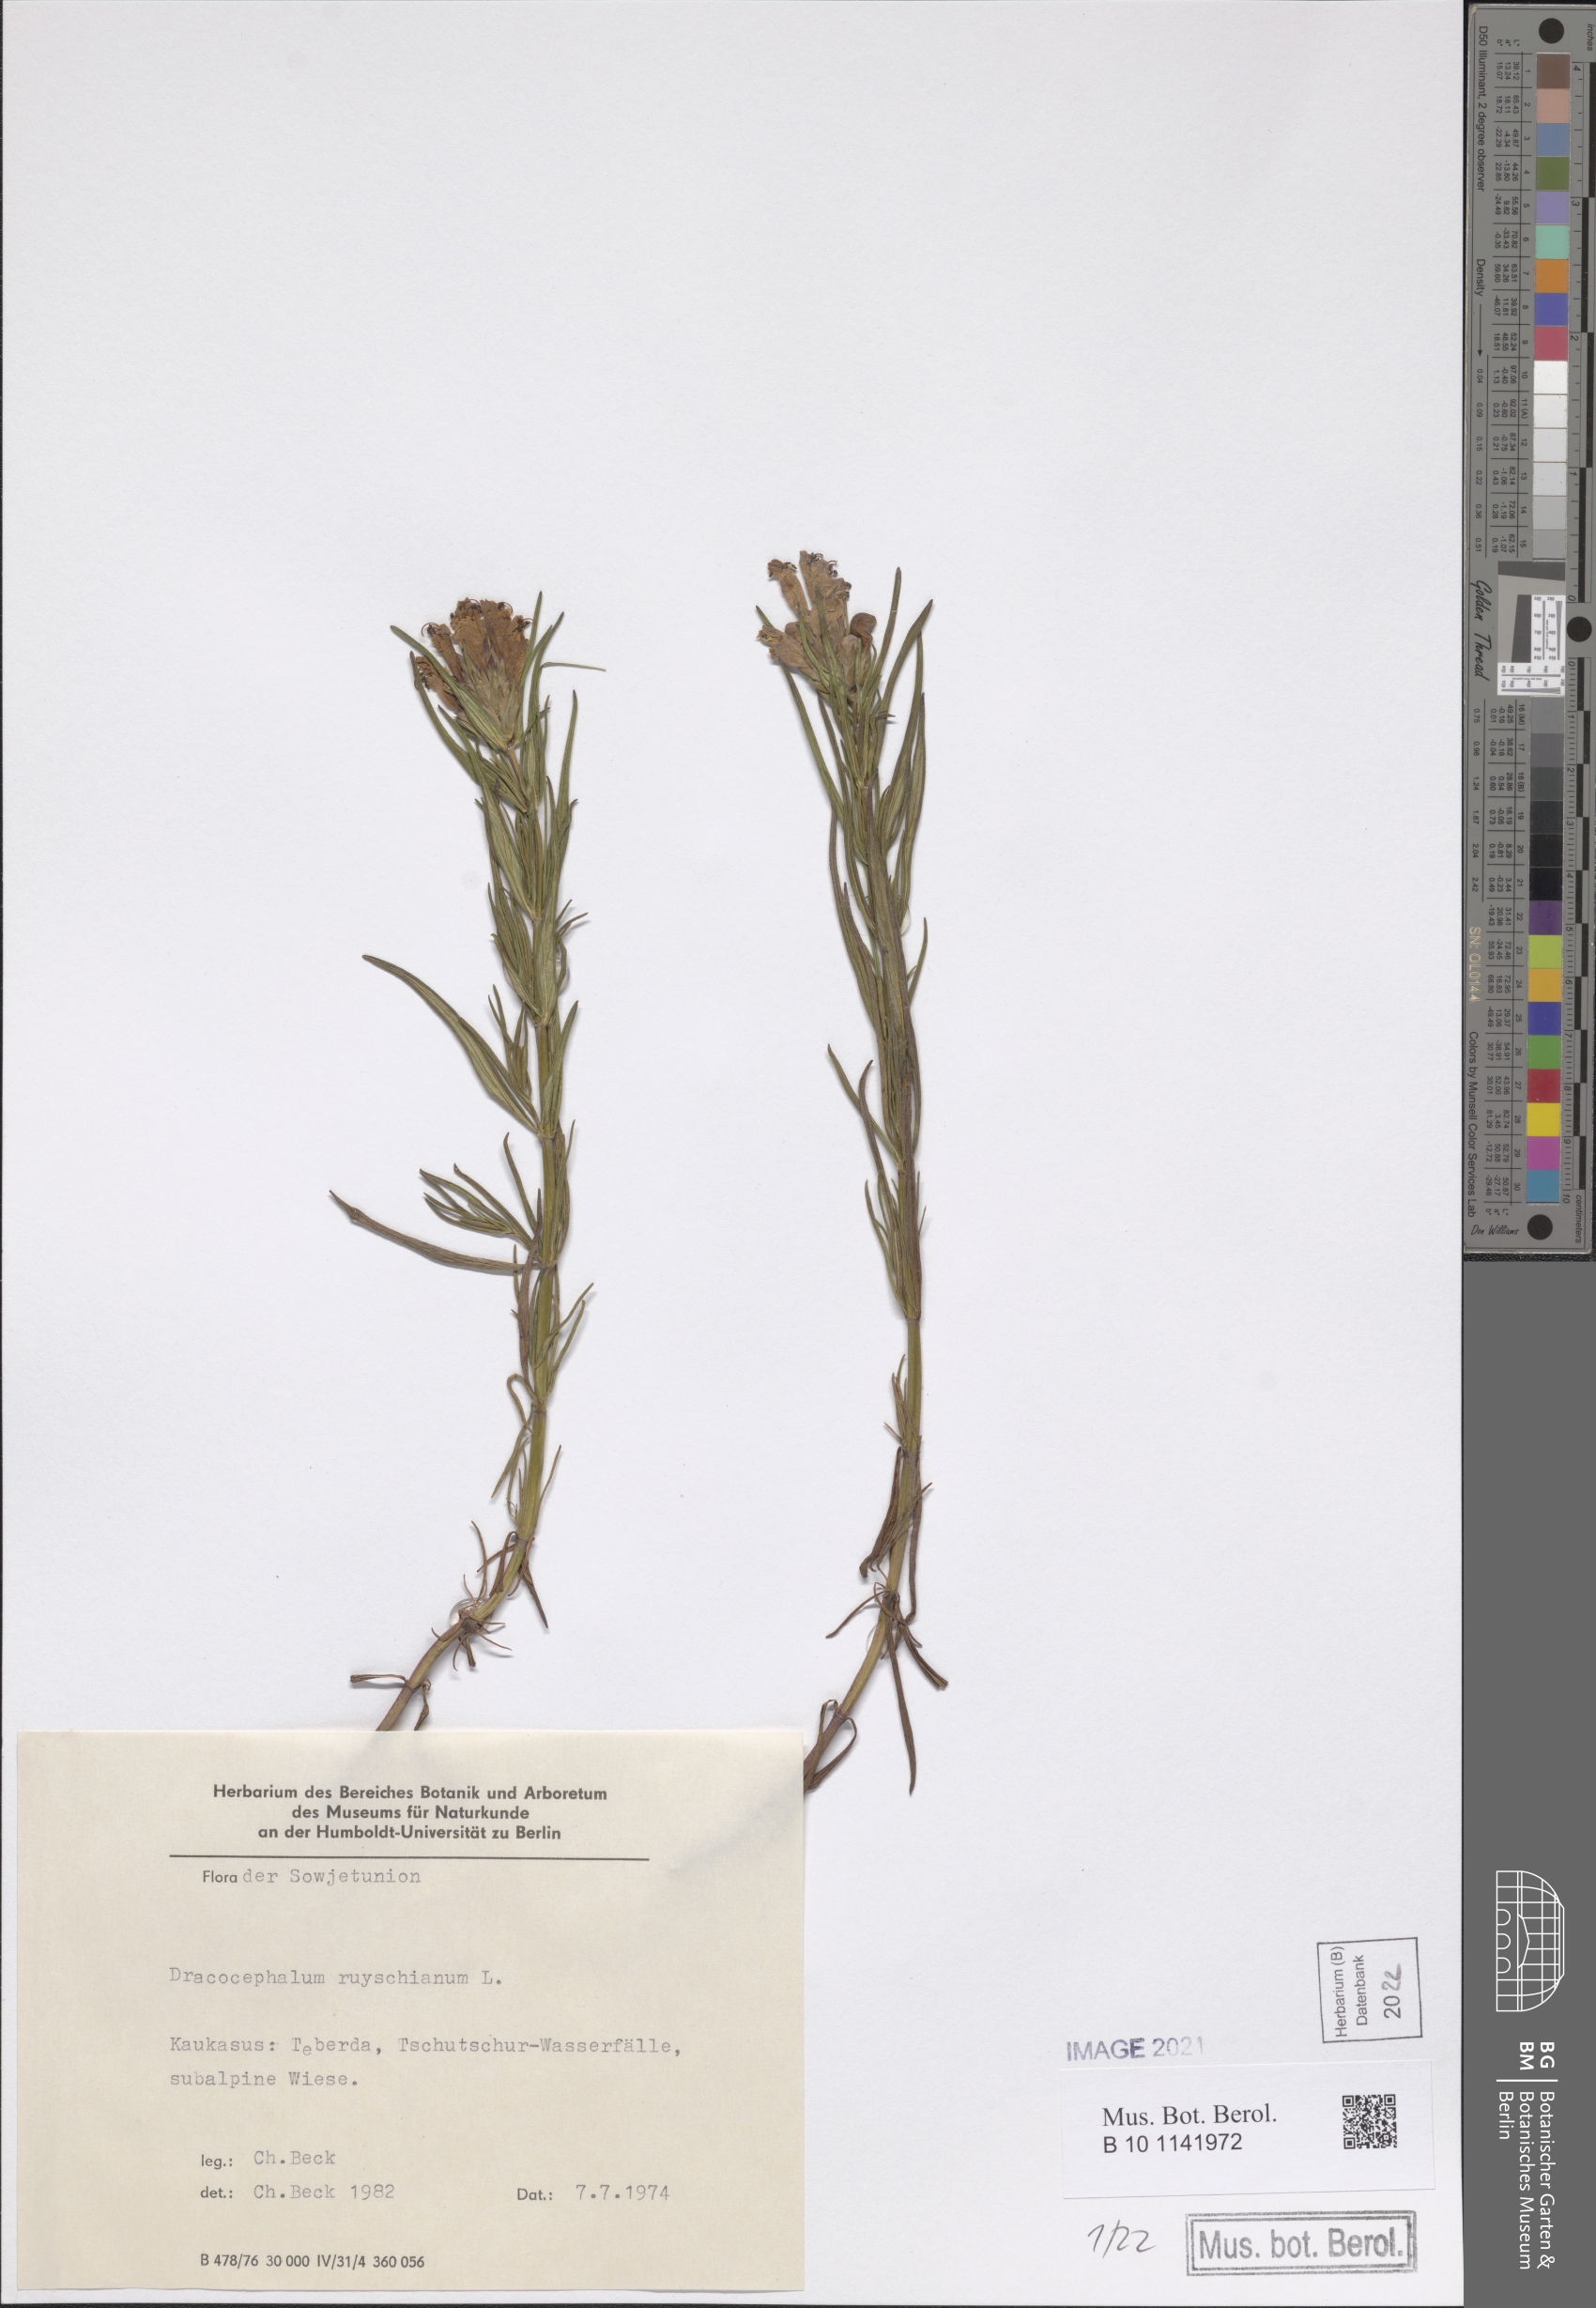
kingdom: Plantae
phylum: Tracheophyta
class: Magnoliopsida
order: Lamiales
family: Lamiaceae
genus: Dracocephalum
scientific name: Dracocephalum ruyschiana
